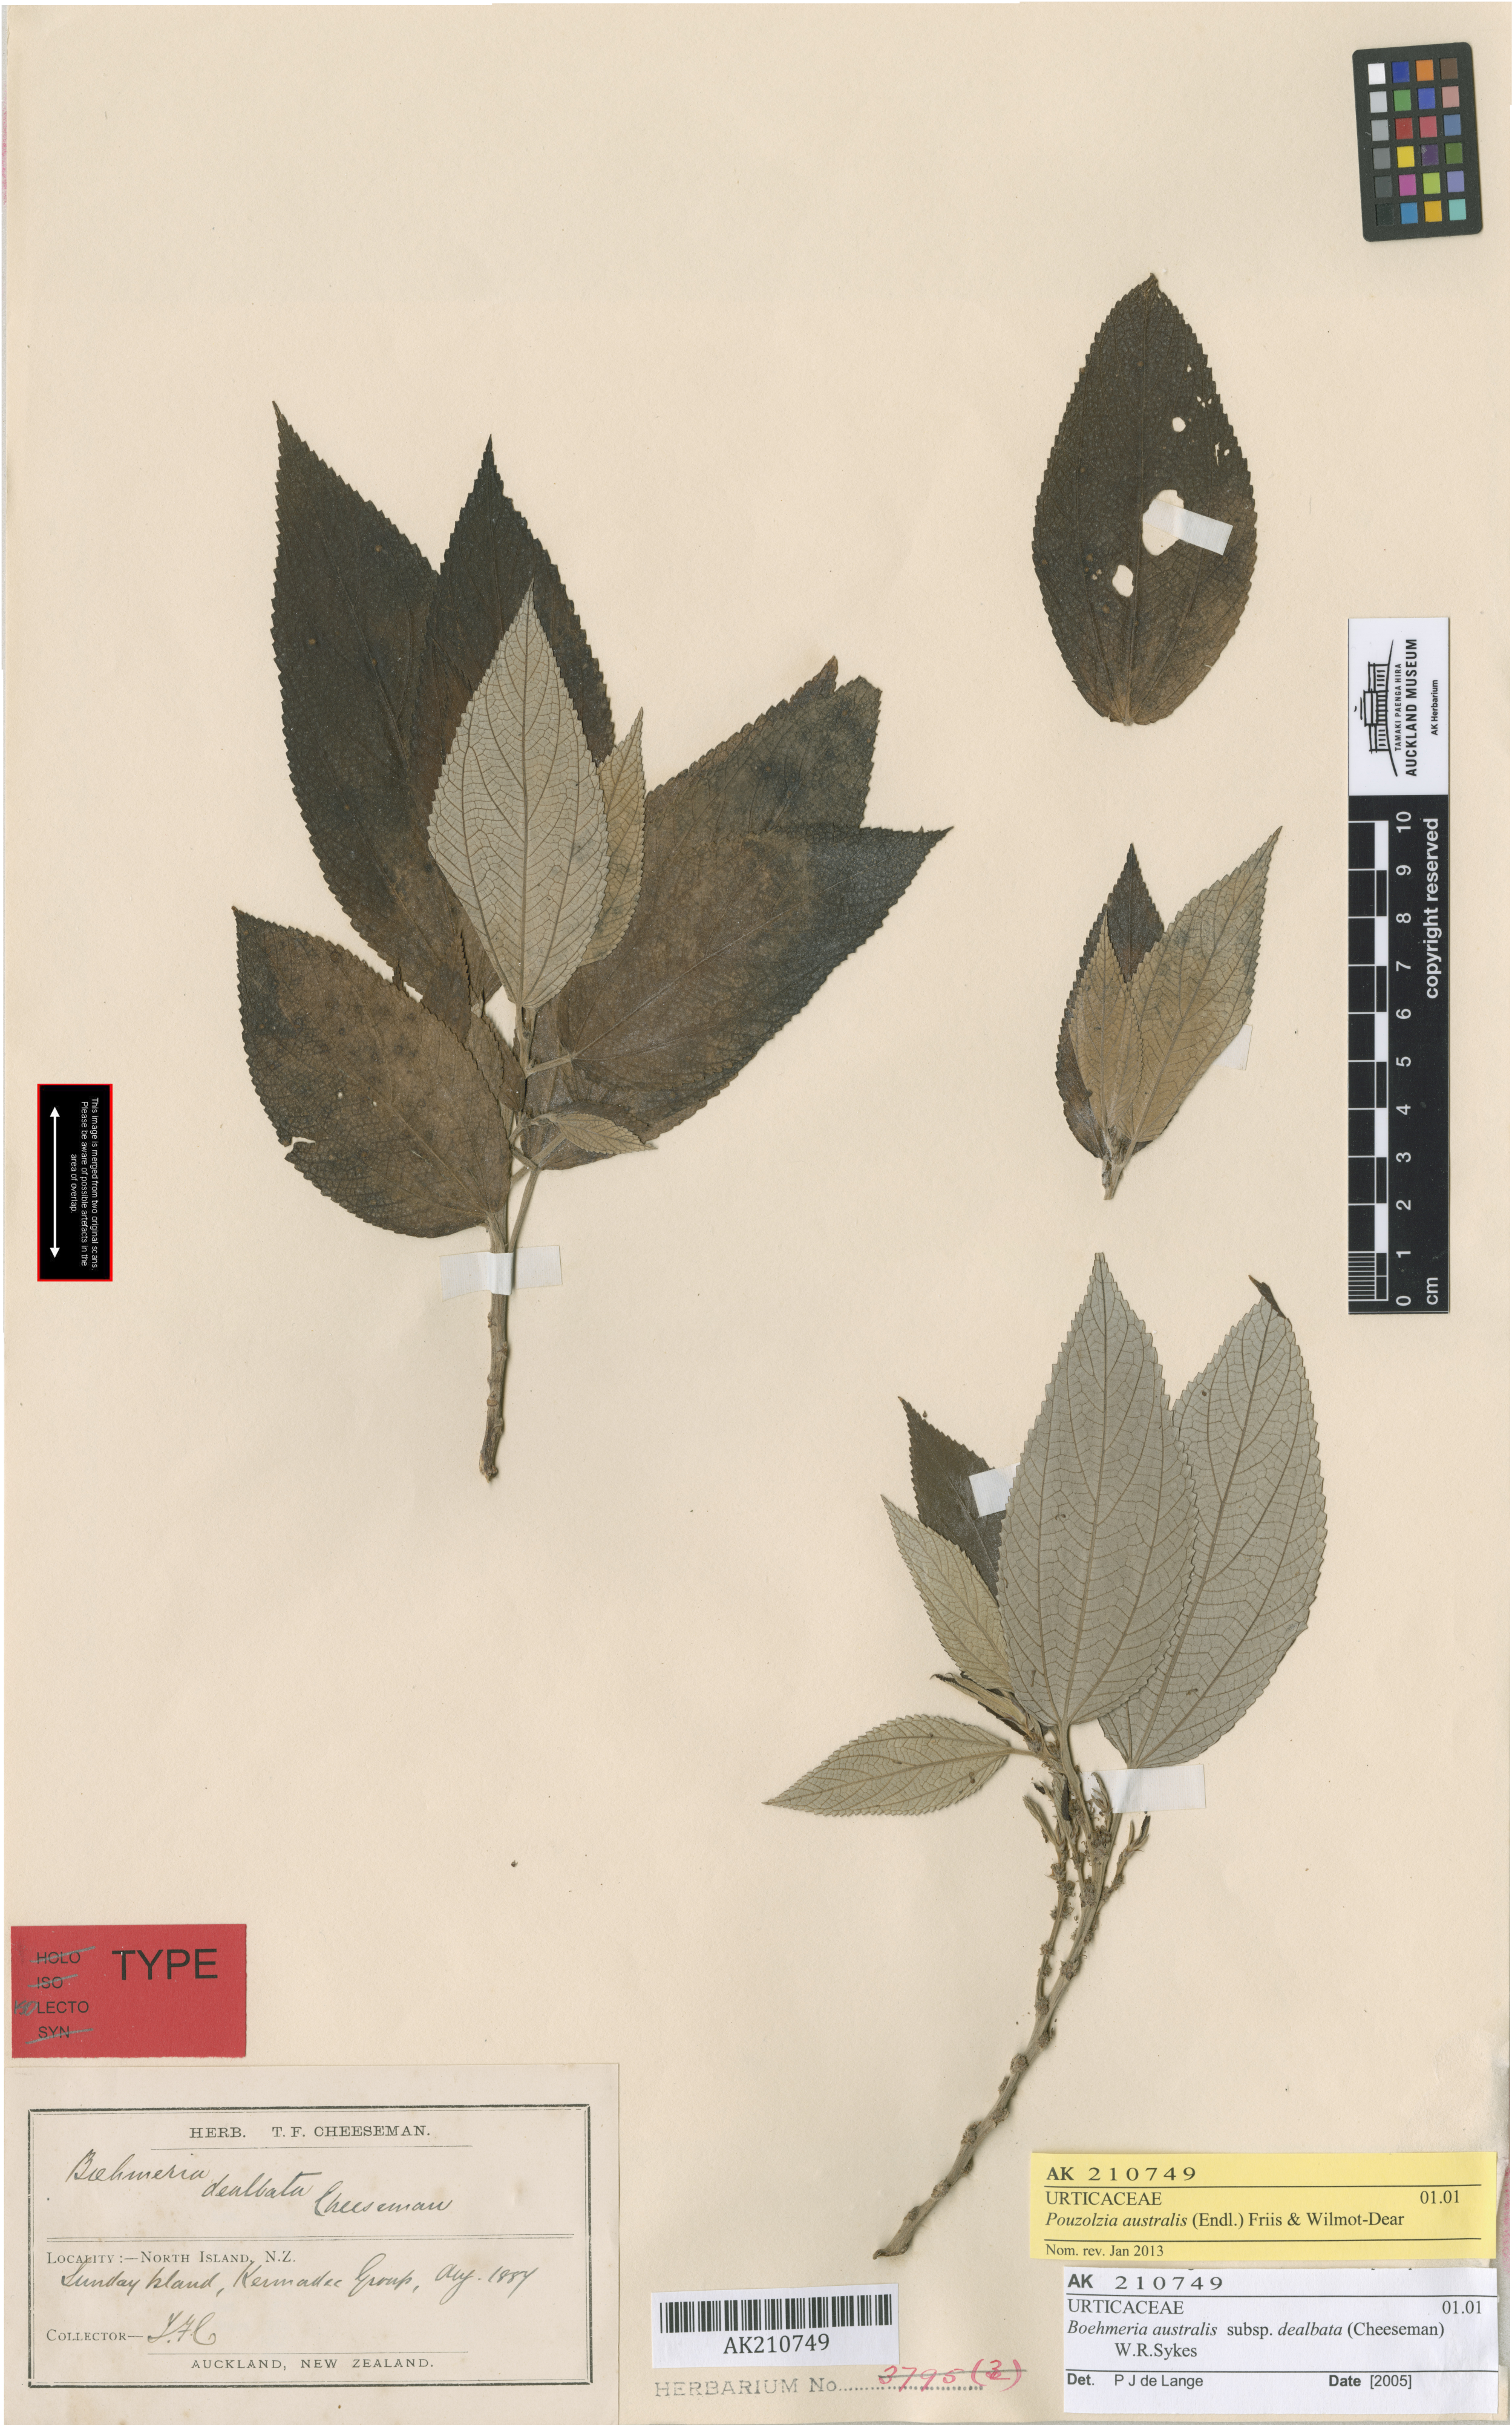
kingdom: Plantae
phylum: Tracheophyta
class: Magnoliopsida
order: Rosales
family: Urticaceae
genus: Pouzolzia
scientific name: Pouzolzia australis
